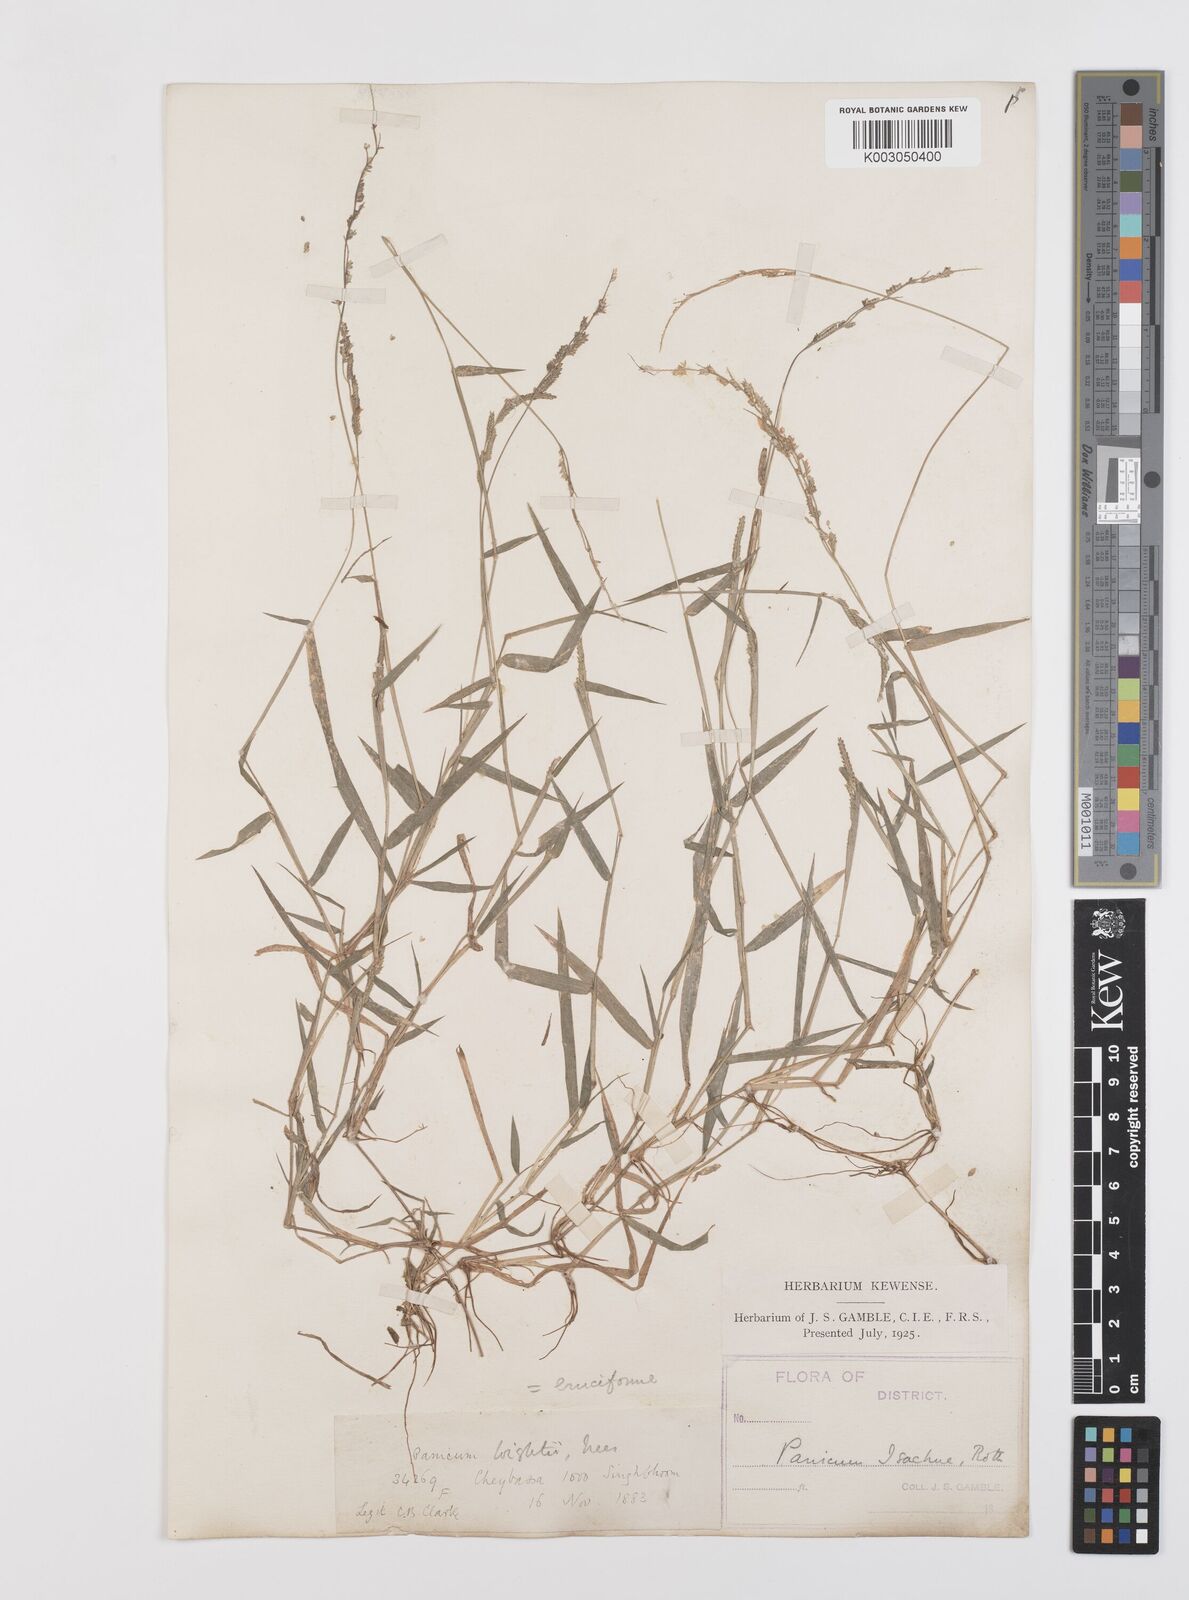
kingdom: Plantae
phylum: Tracheophyta
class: Liliopsida
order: Poales
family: Poaceae
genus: Moorochloa
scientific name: Moorochloa eruciformis
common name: Sweet signalgrass
